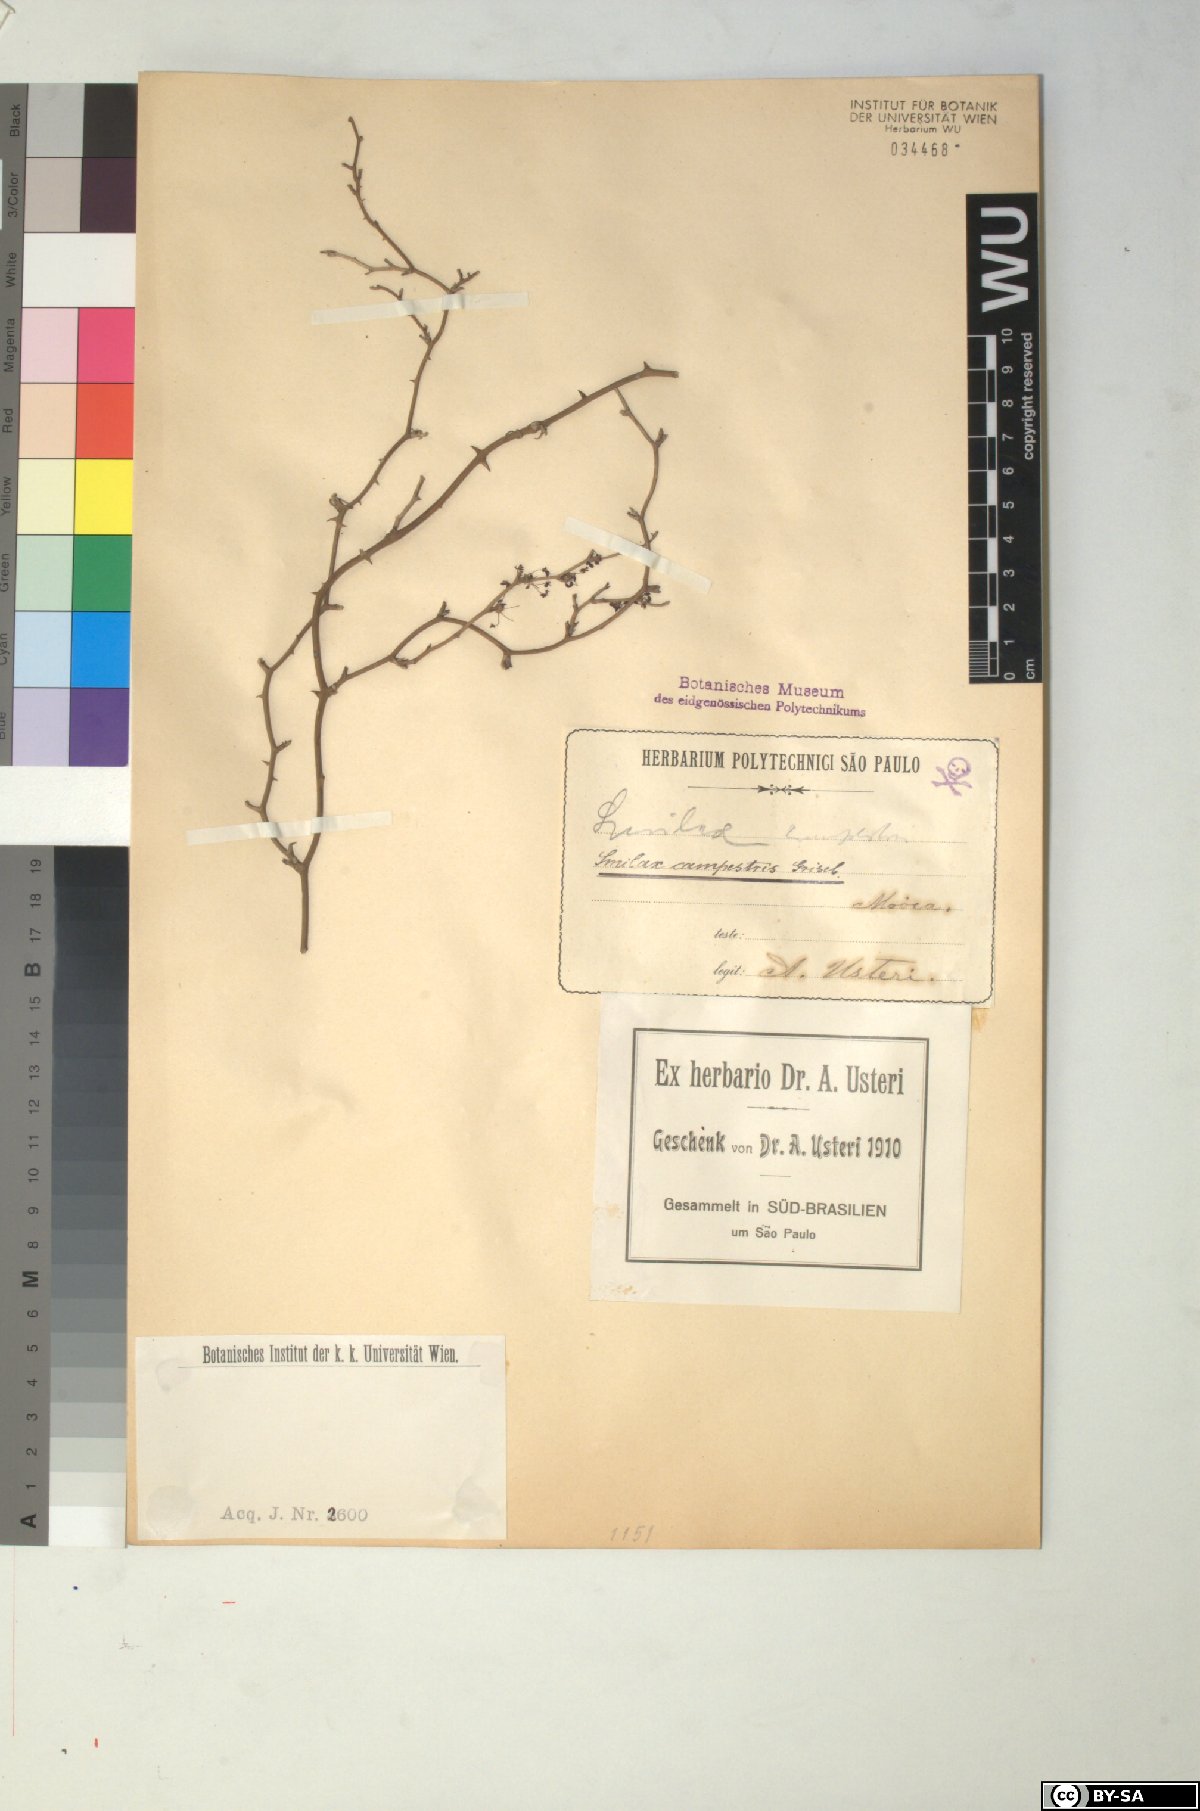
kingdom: Plantae
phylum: Tracheophyta
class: Liliopsida
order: Liliales
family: Smilacaceae
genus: Smilax
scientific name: Smilax campestris
